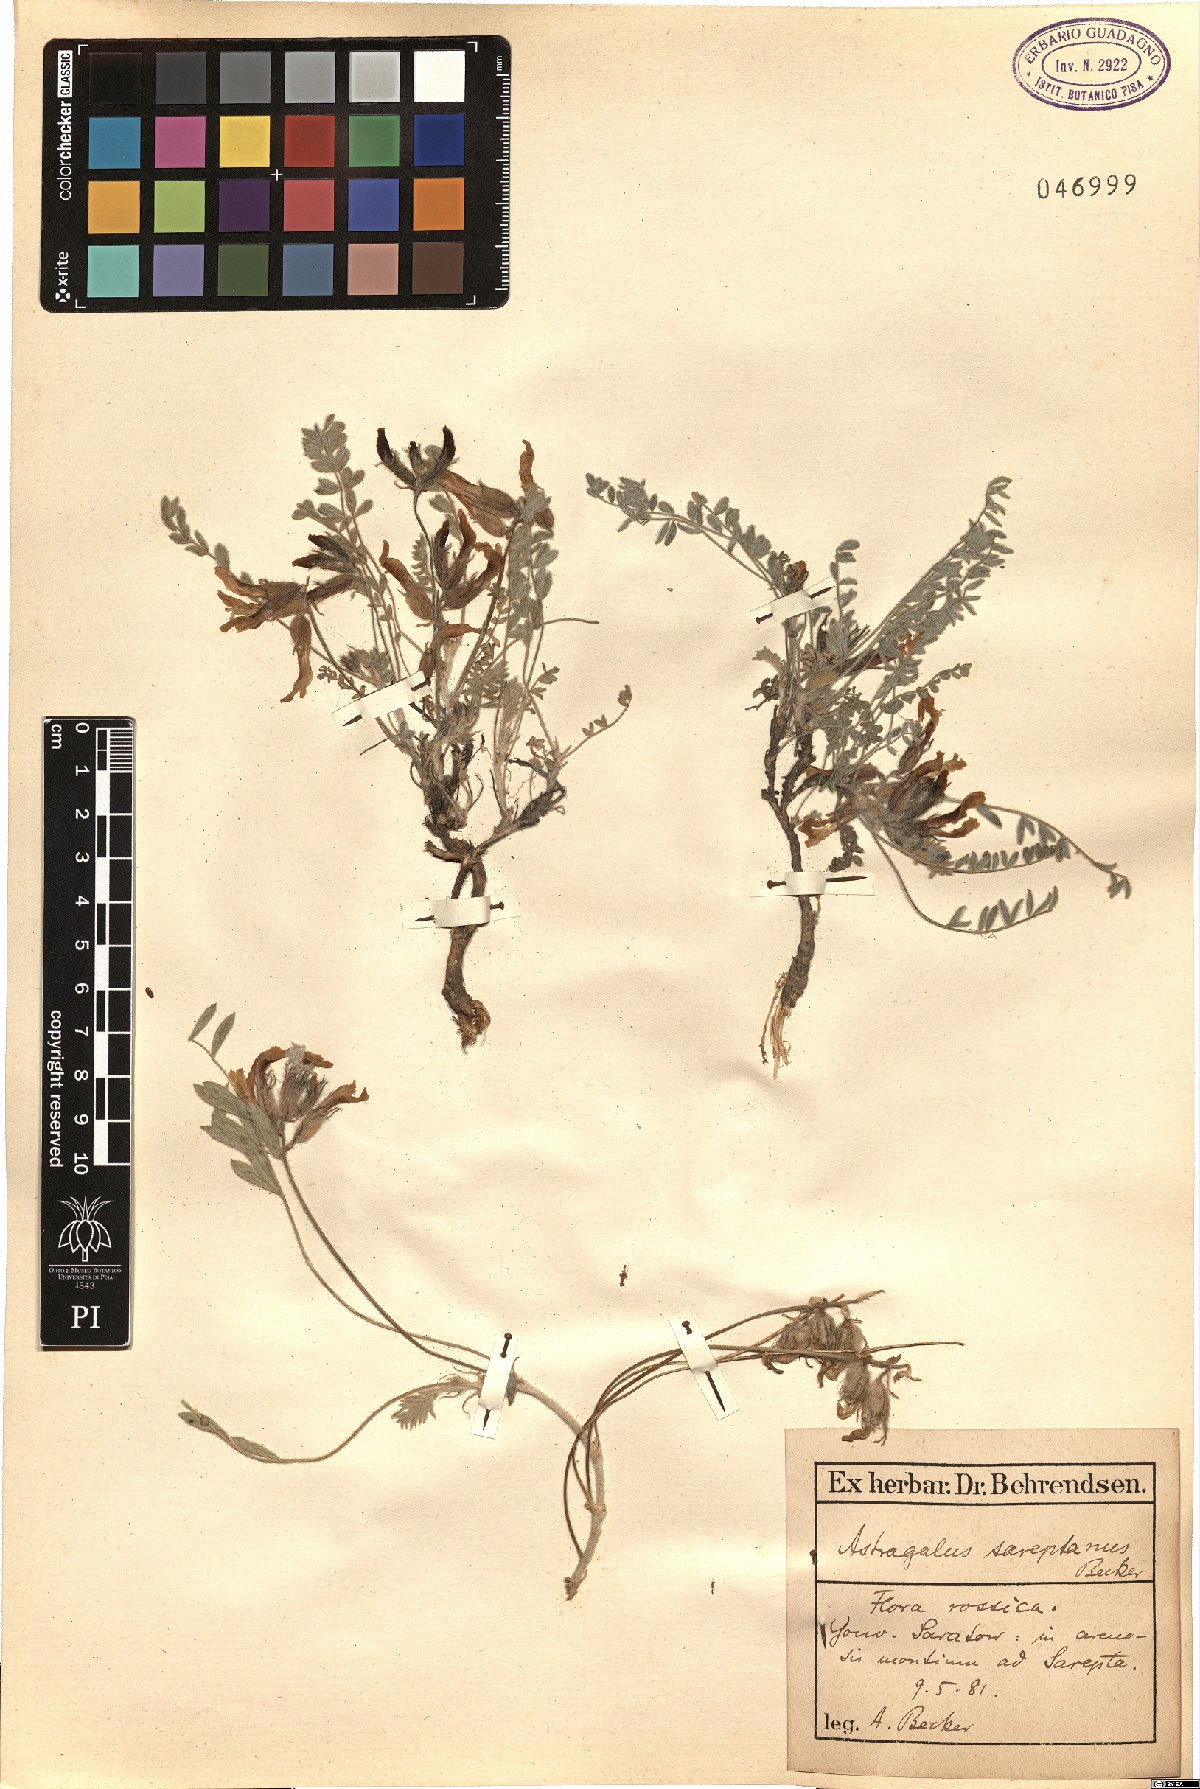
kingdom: Plantae
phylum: Tracheophyta
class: Magnoliopsida
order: Fabales
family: Fabaceae
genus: Astragalus
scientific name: Astragalus rupifragus
